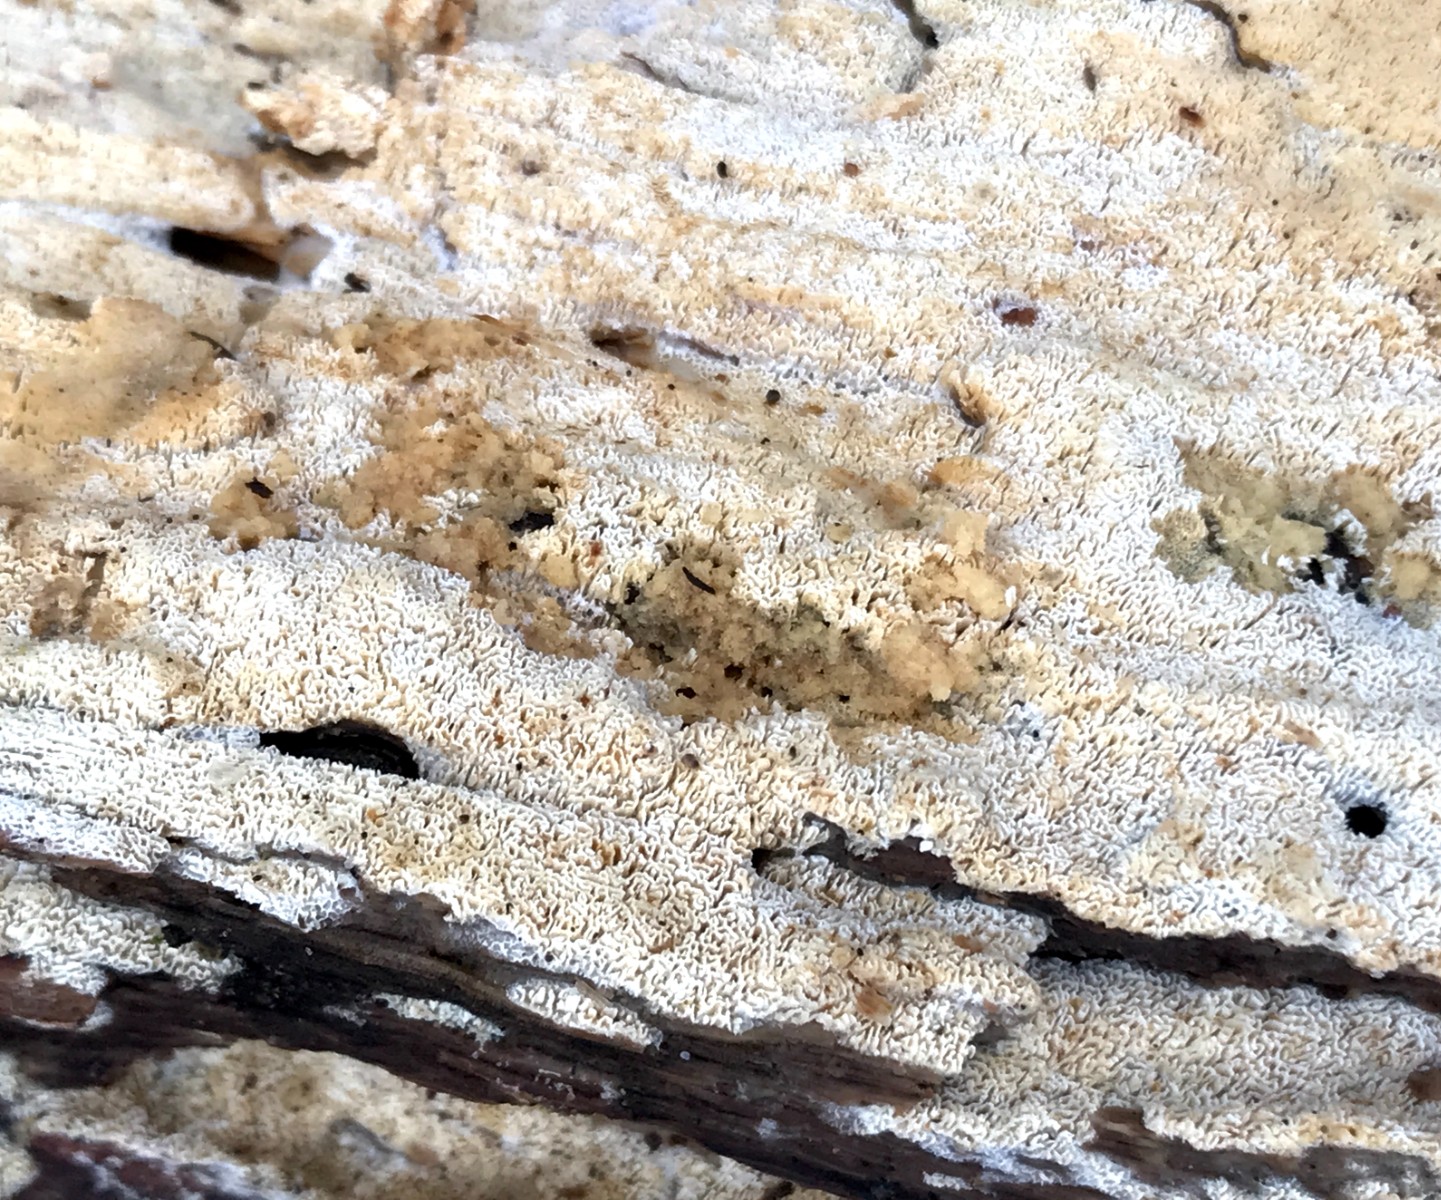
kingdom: Fungi
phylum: Basidiomycota
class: Agaricomycetes
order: Hymenochaetales
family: Schizoporaceae
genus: Xylodon
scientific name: Xylodon subtropicus
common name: labyrint-tandsvamp
